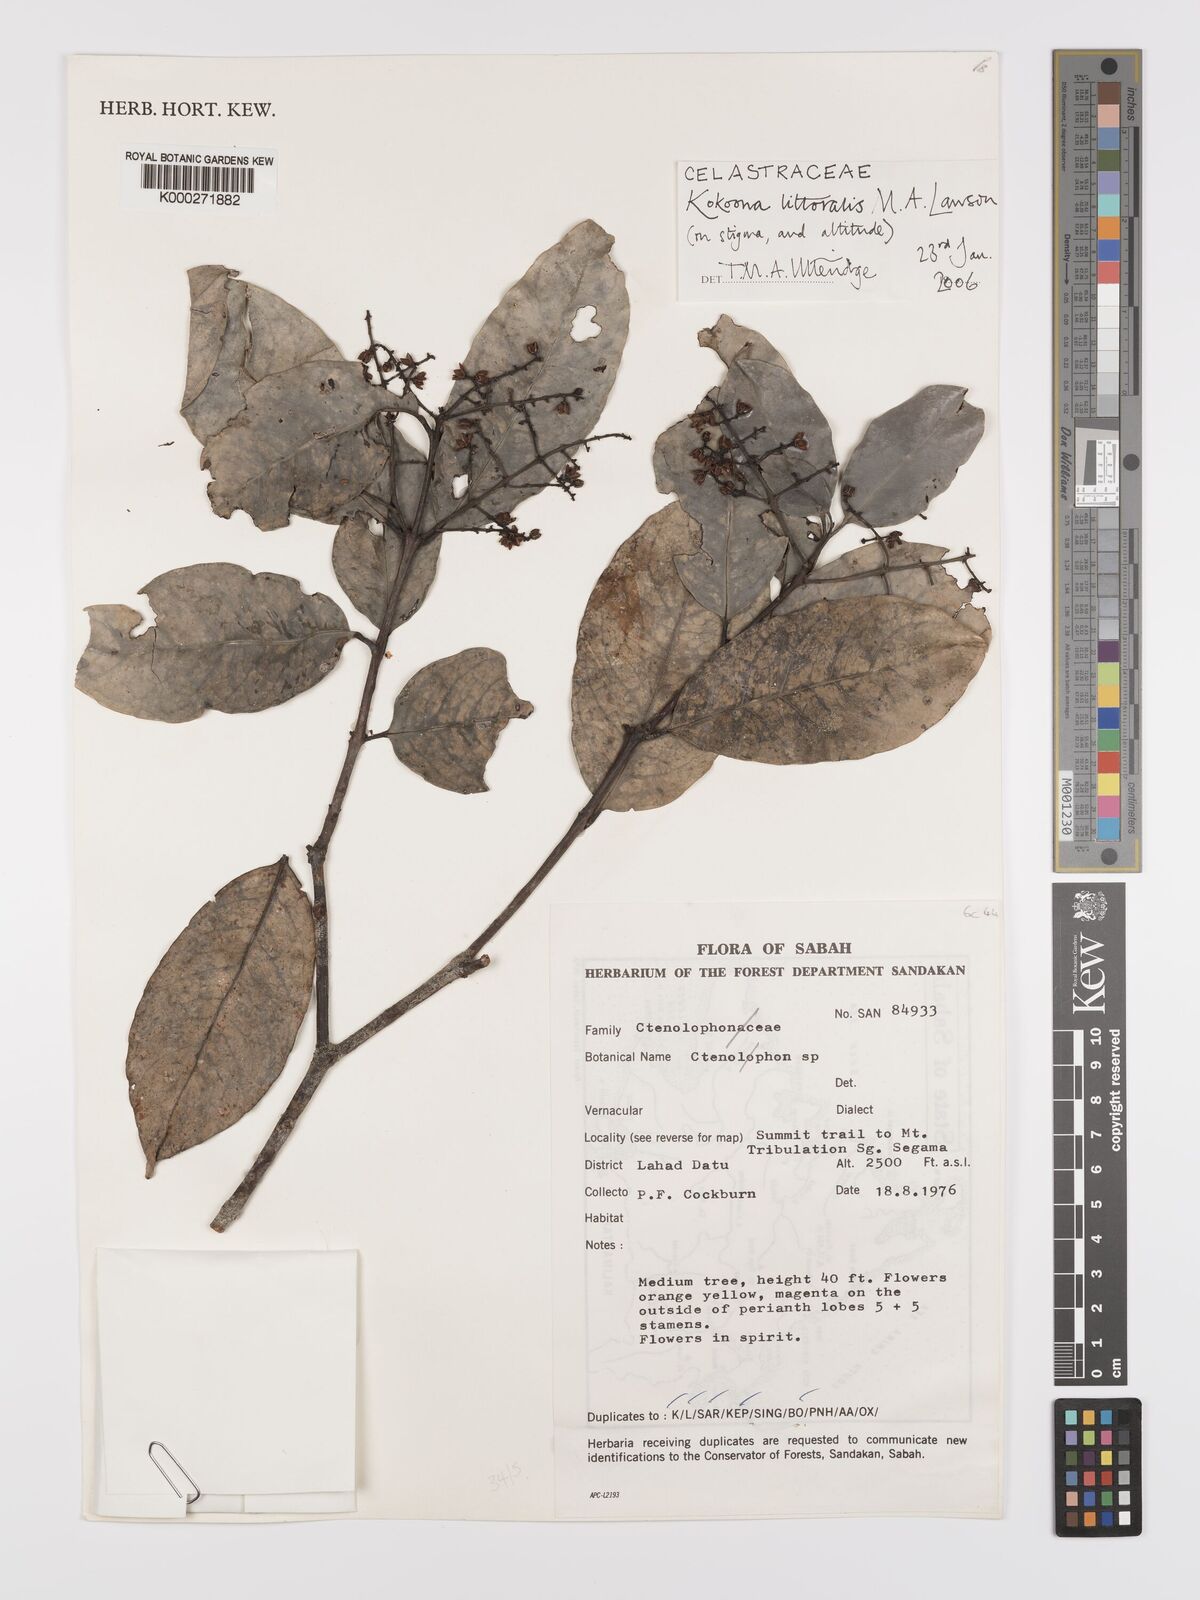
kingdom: Plantae
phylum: Tracheophyta
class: Magnoliopsida
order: Celastrales
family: Celastraceae
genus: Kokoona
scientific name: Kokoona littoralis
